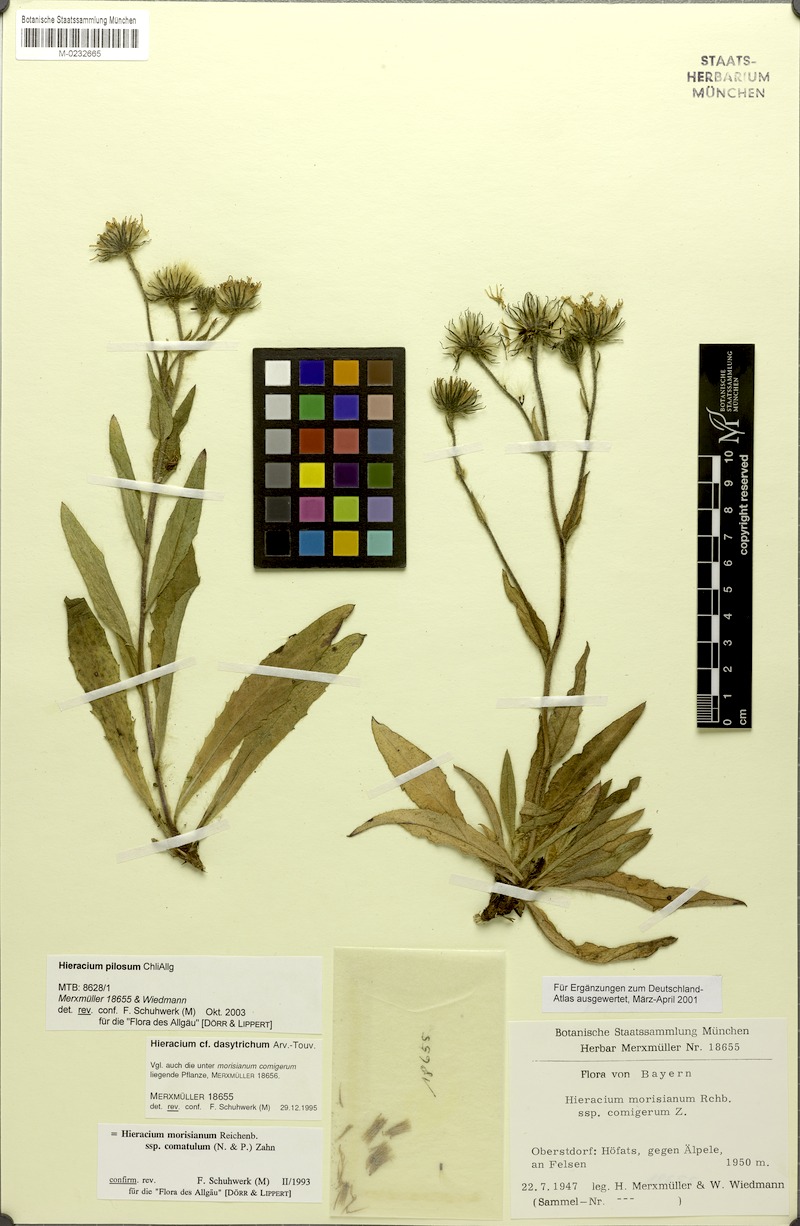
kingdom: Plantae
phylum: Tracheophyta
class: Magnoliopsida
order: Asterales
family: Asteraceae
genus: Hieracium
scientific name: Hieracium pilosum
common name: Fimbriate-pitted hawkweed
